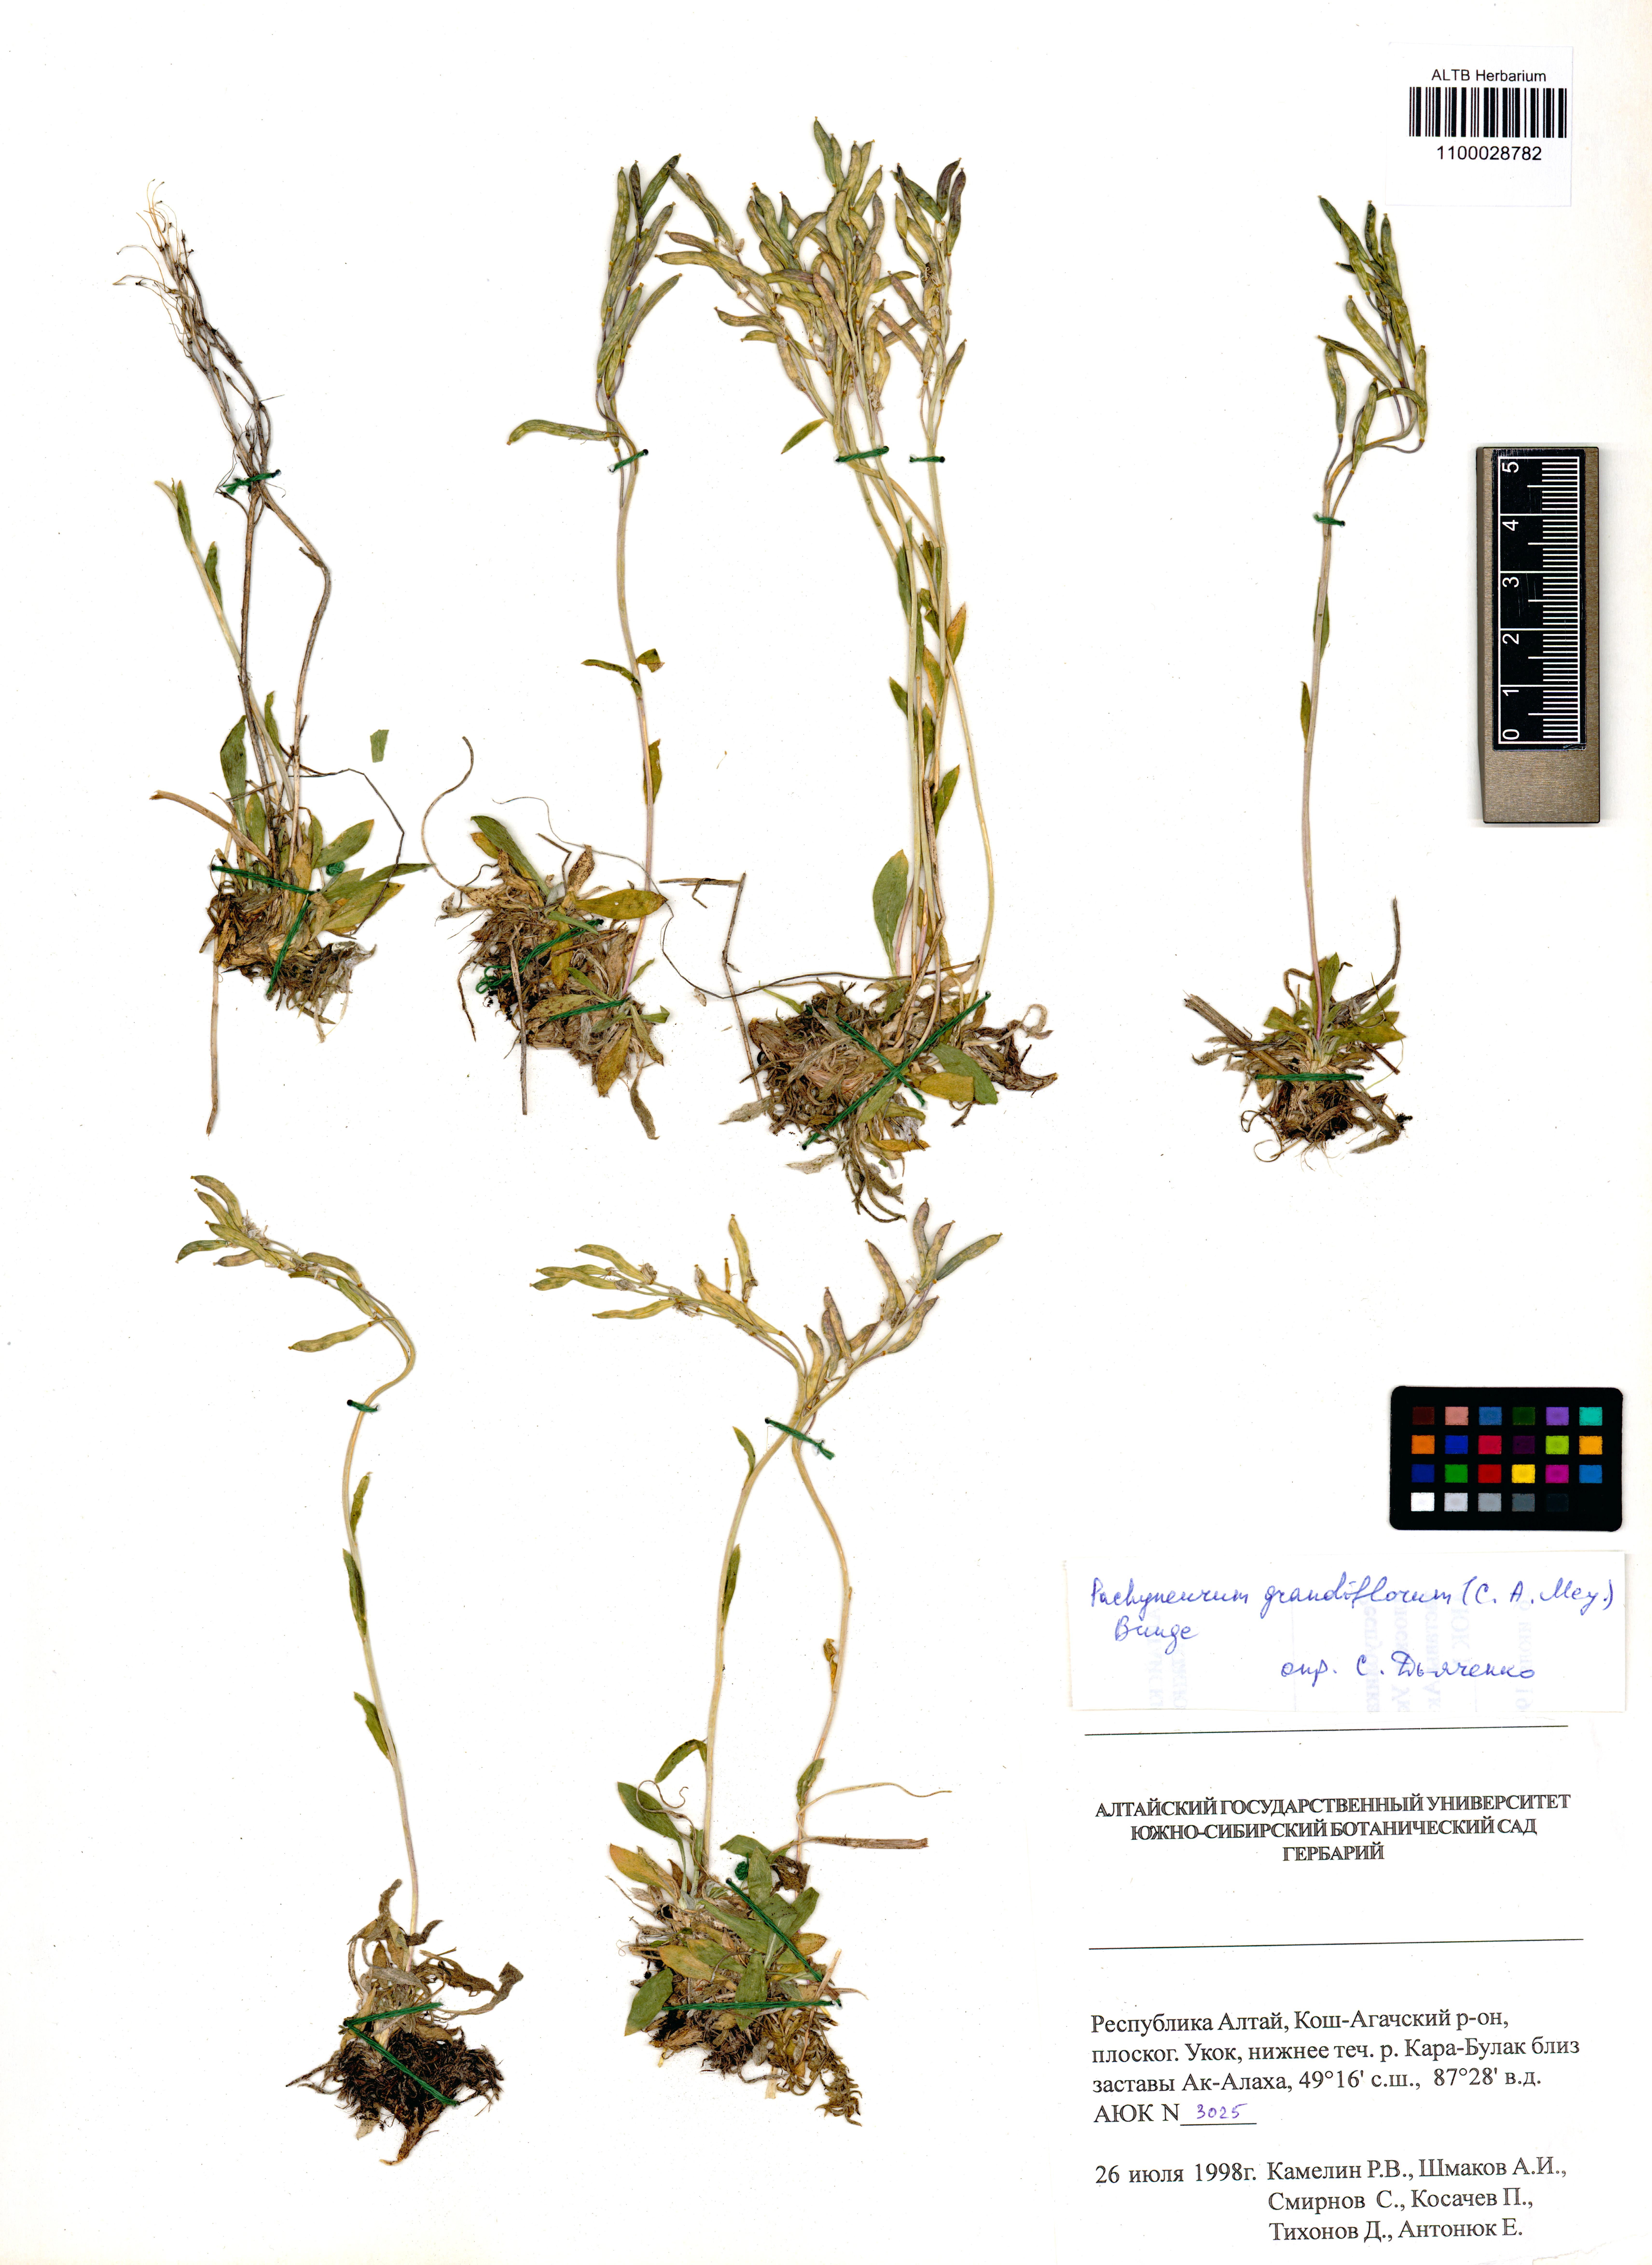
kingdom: Plantae
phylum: Tracheophyta
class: Magnoliopsida
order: Brassicales
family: Brassicaceae
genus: Pachyneurum
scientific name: Pachyneurum grandiflorum
